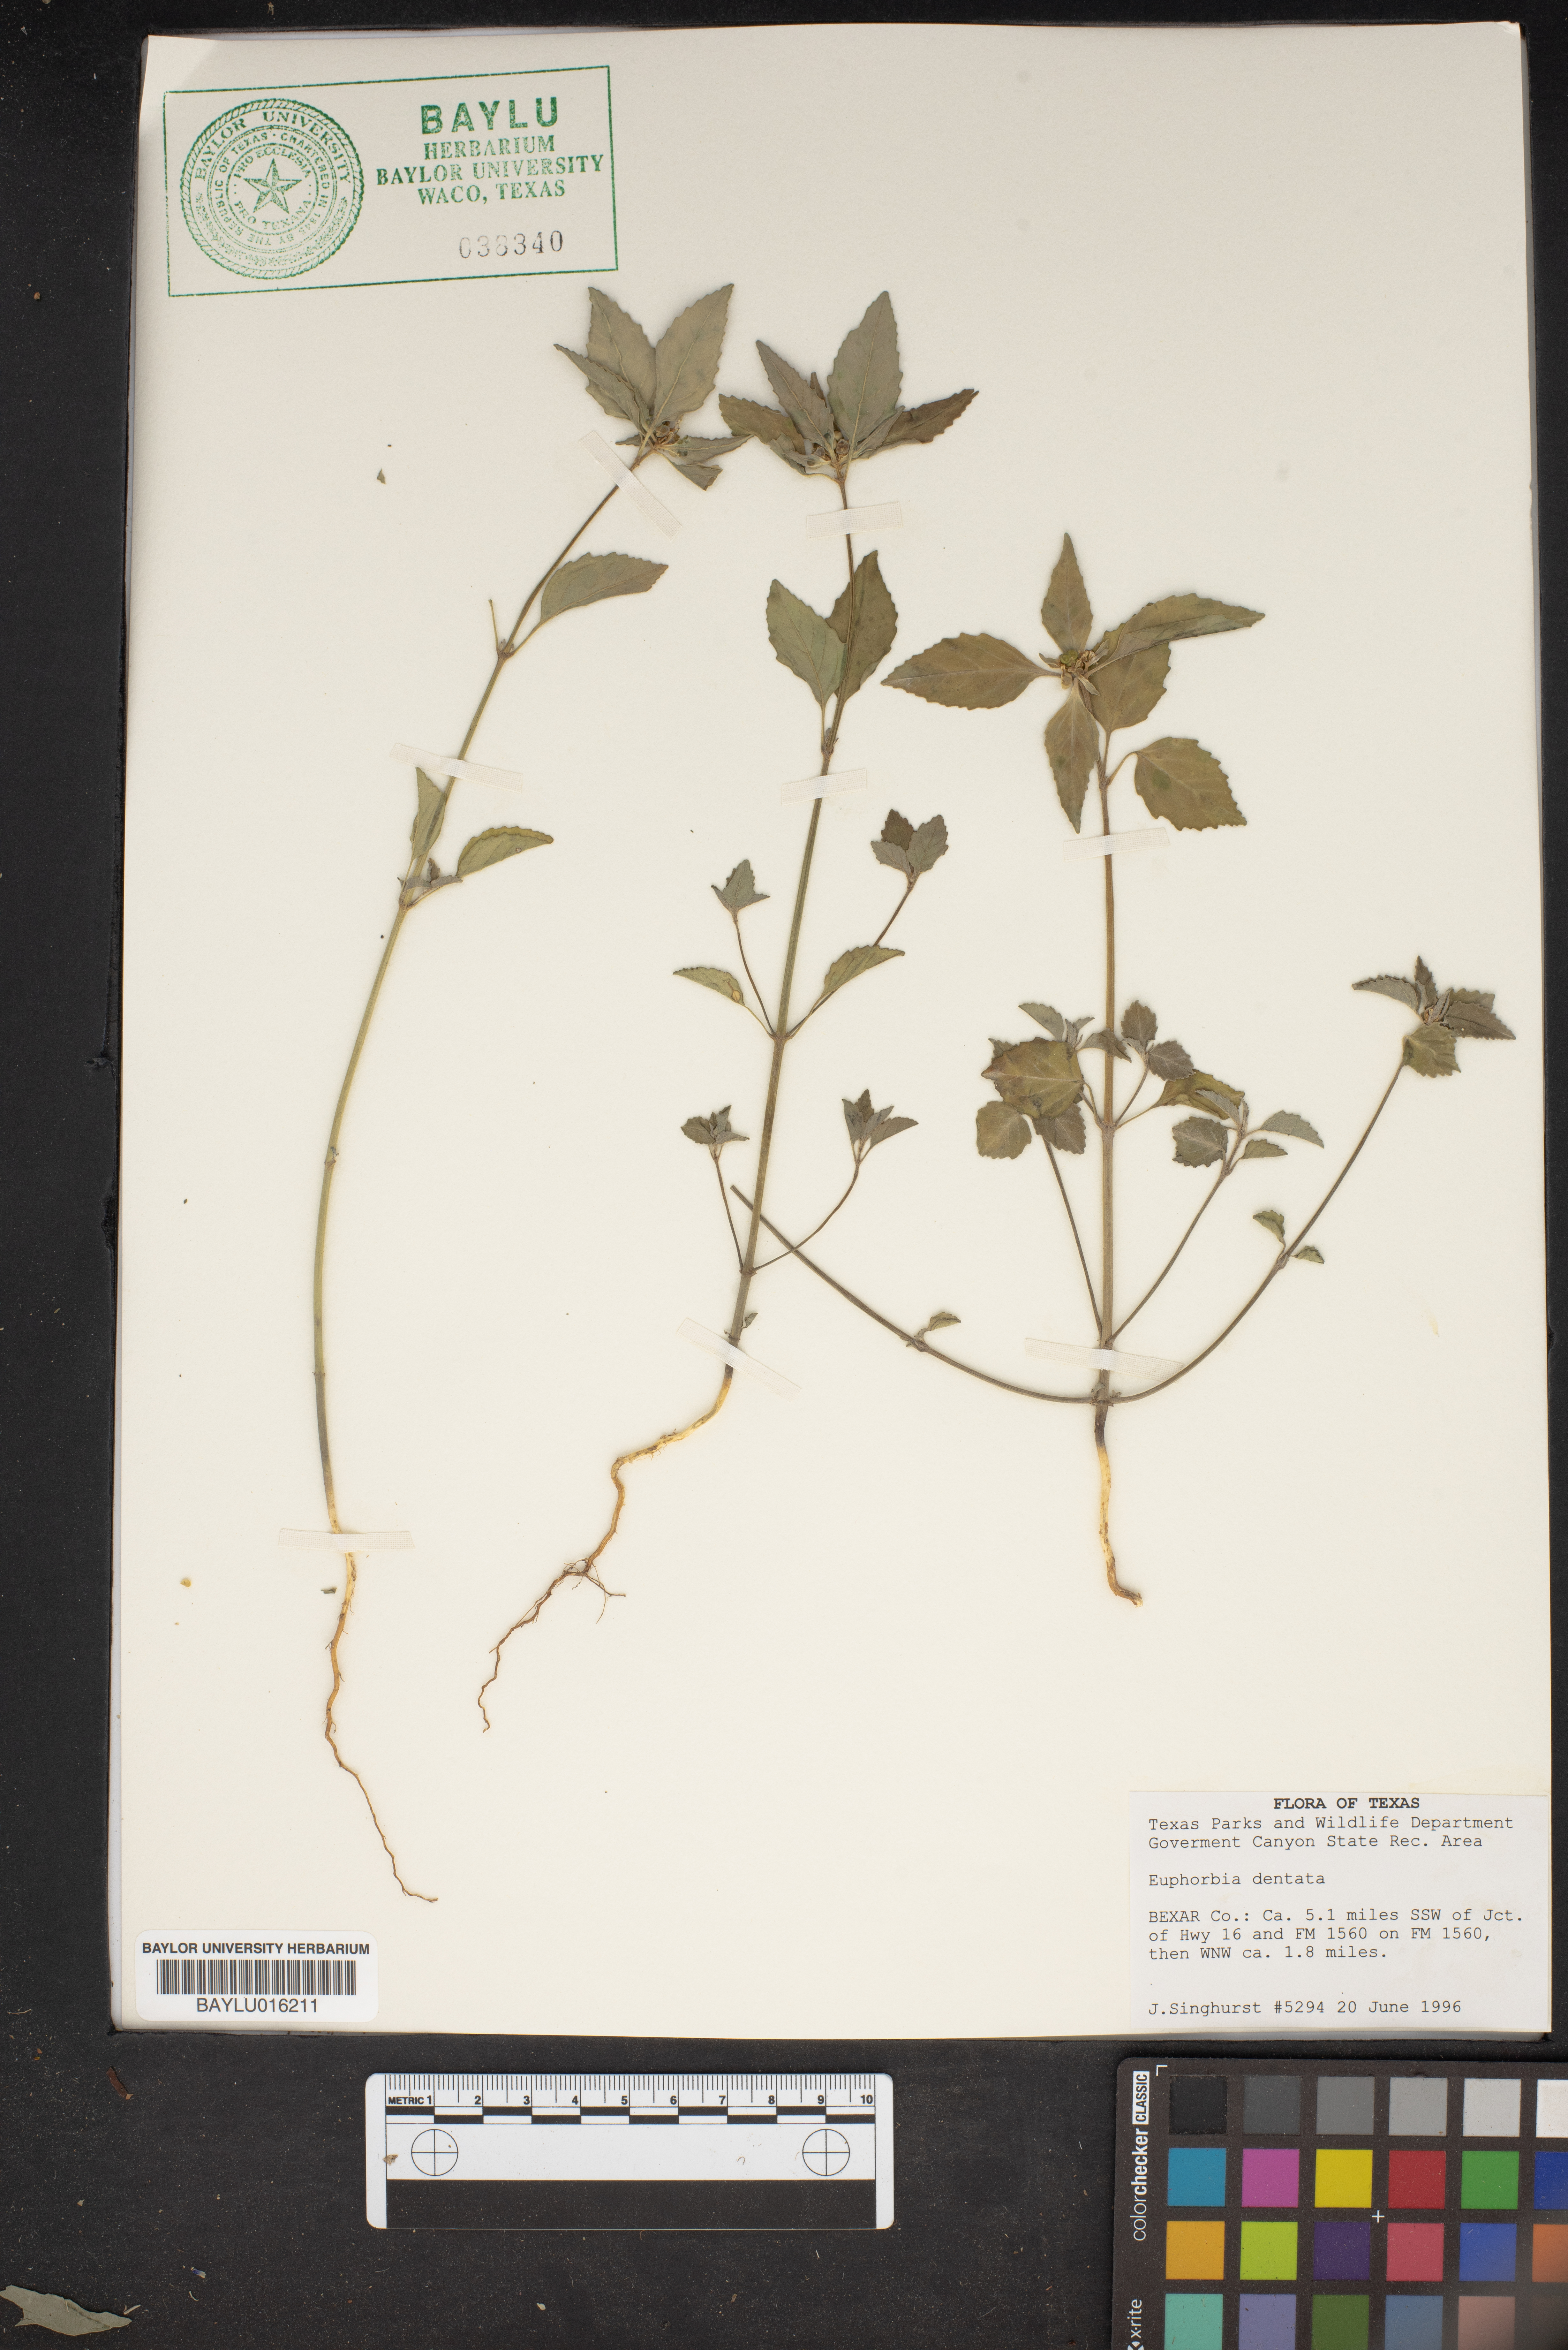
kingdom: Plantae
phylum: Tracheophyta
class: Magnoliopsida
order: Malpighiales
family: Euphorbiaceae
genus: Euphorbia
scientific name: Euphorbia dentata
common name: Dentate spurge
